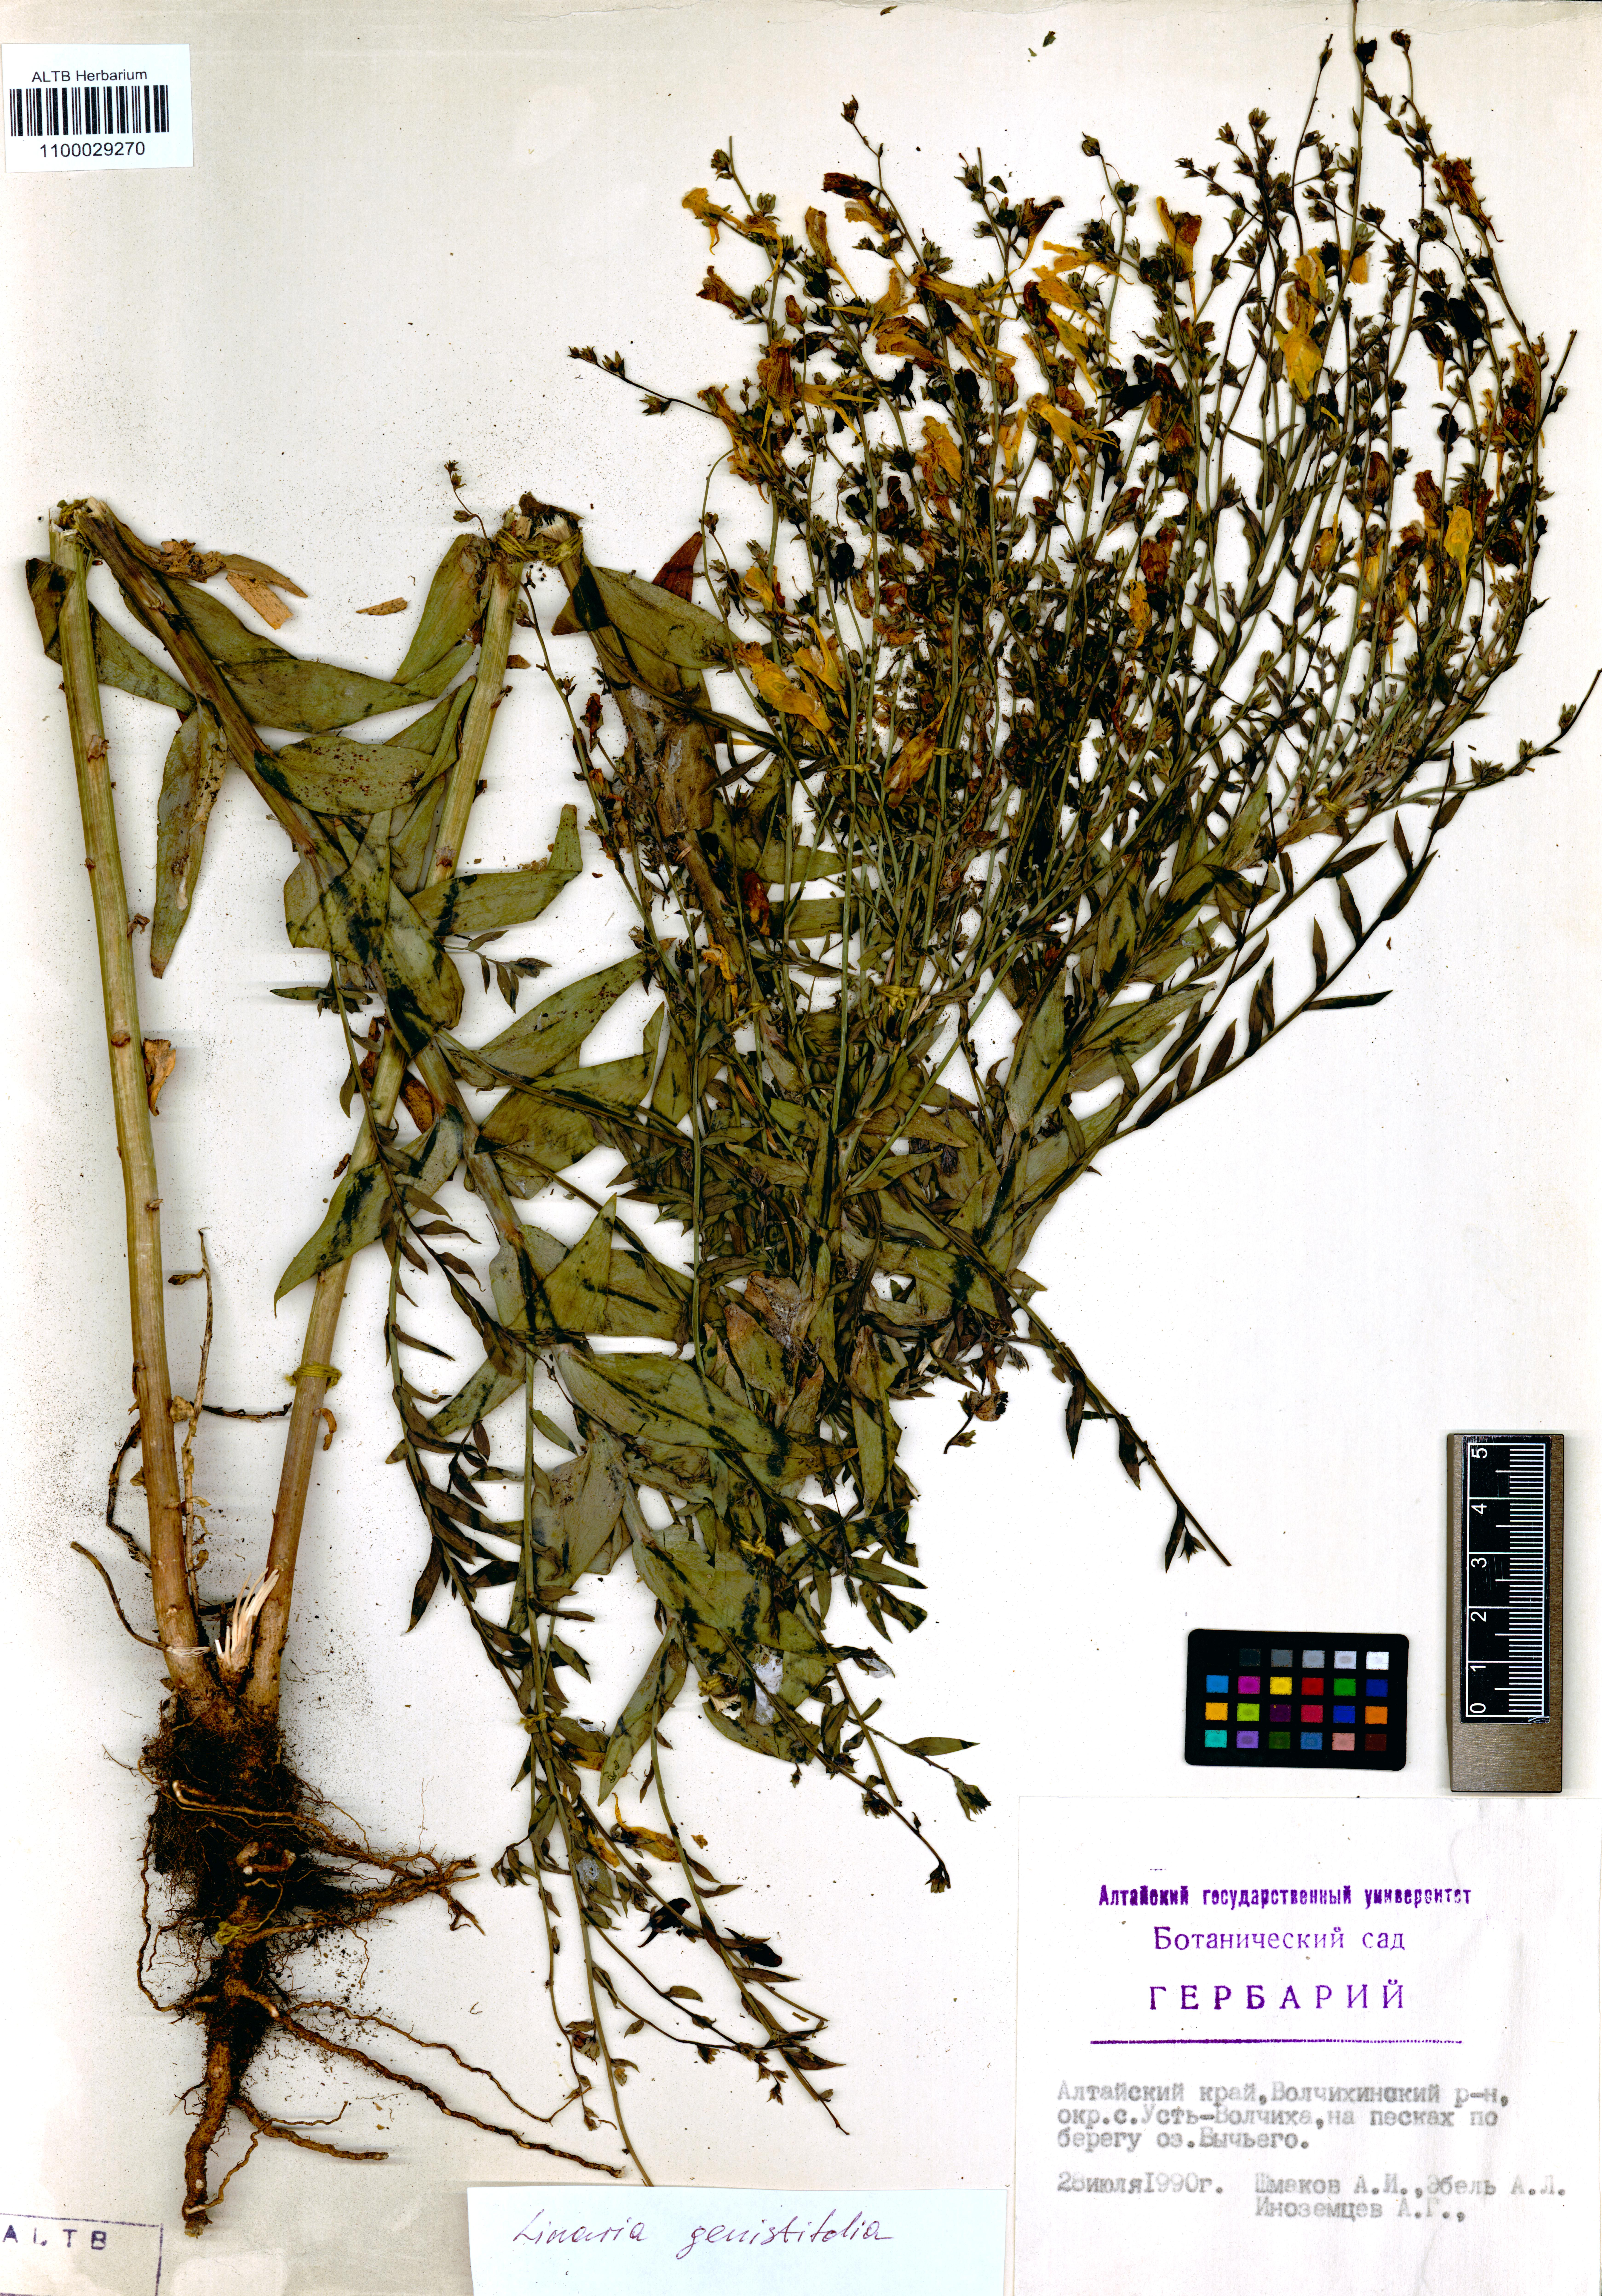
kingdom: Plantae
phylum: Tracheophyta
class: Magnoliopsida
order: Lamiales
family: Plantaginaceae
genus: Linaria
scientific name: Linaria genistifolia
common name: Broomleaf toadflax
